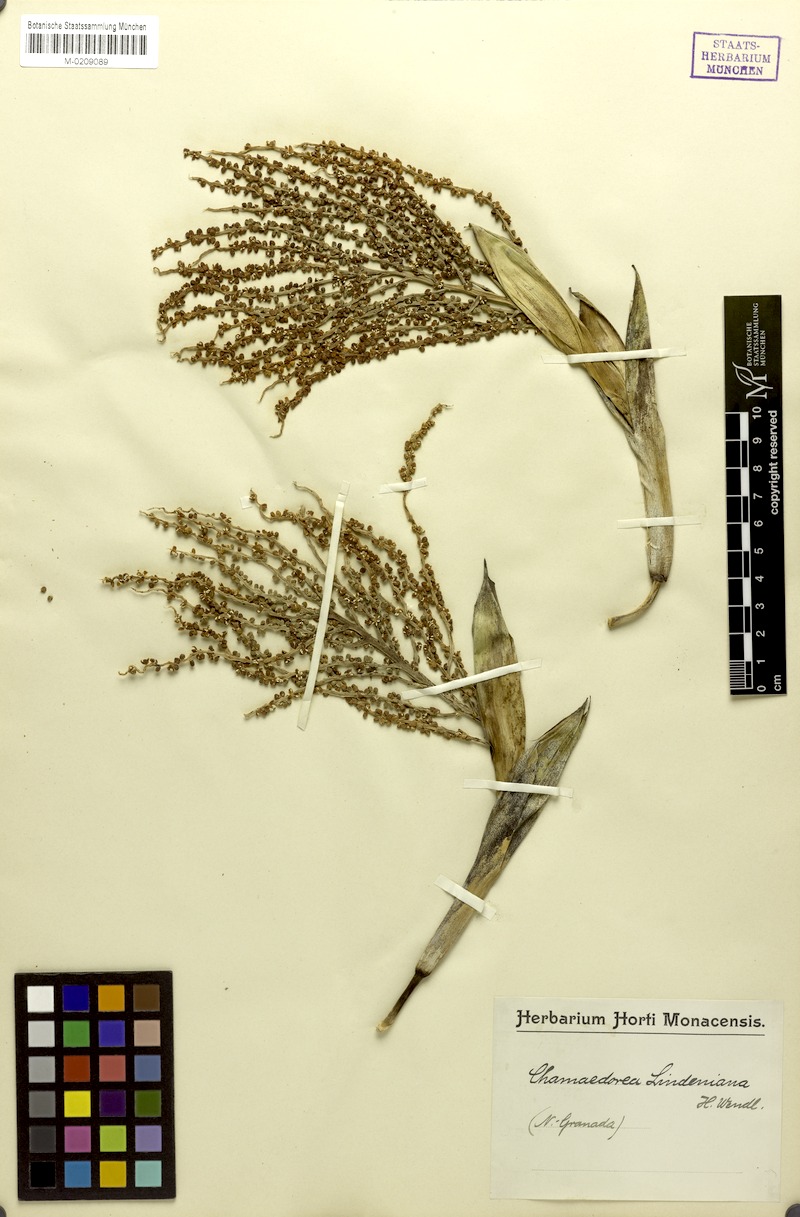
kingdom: Plantae
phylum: Tracheophyta
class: Liliopsida
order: Arecales
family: Arecaceae
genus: Chamaedorea
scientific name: Chamaedorea linearis
